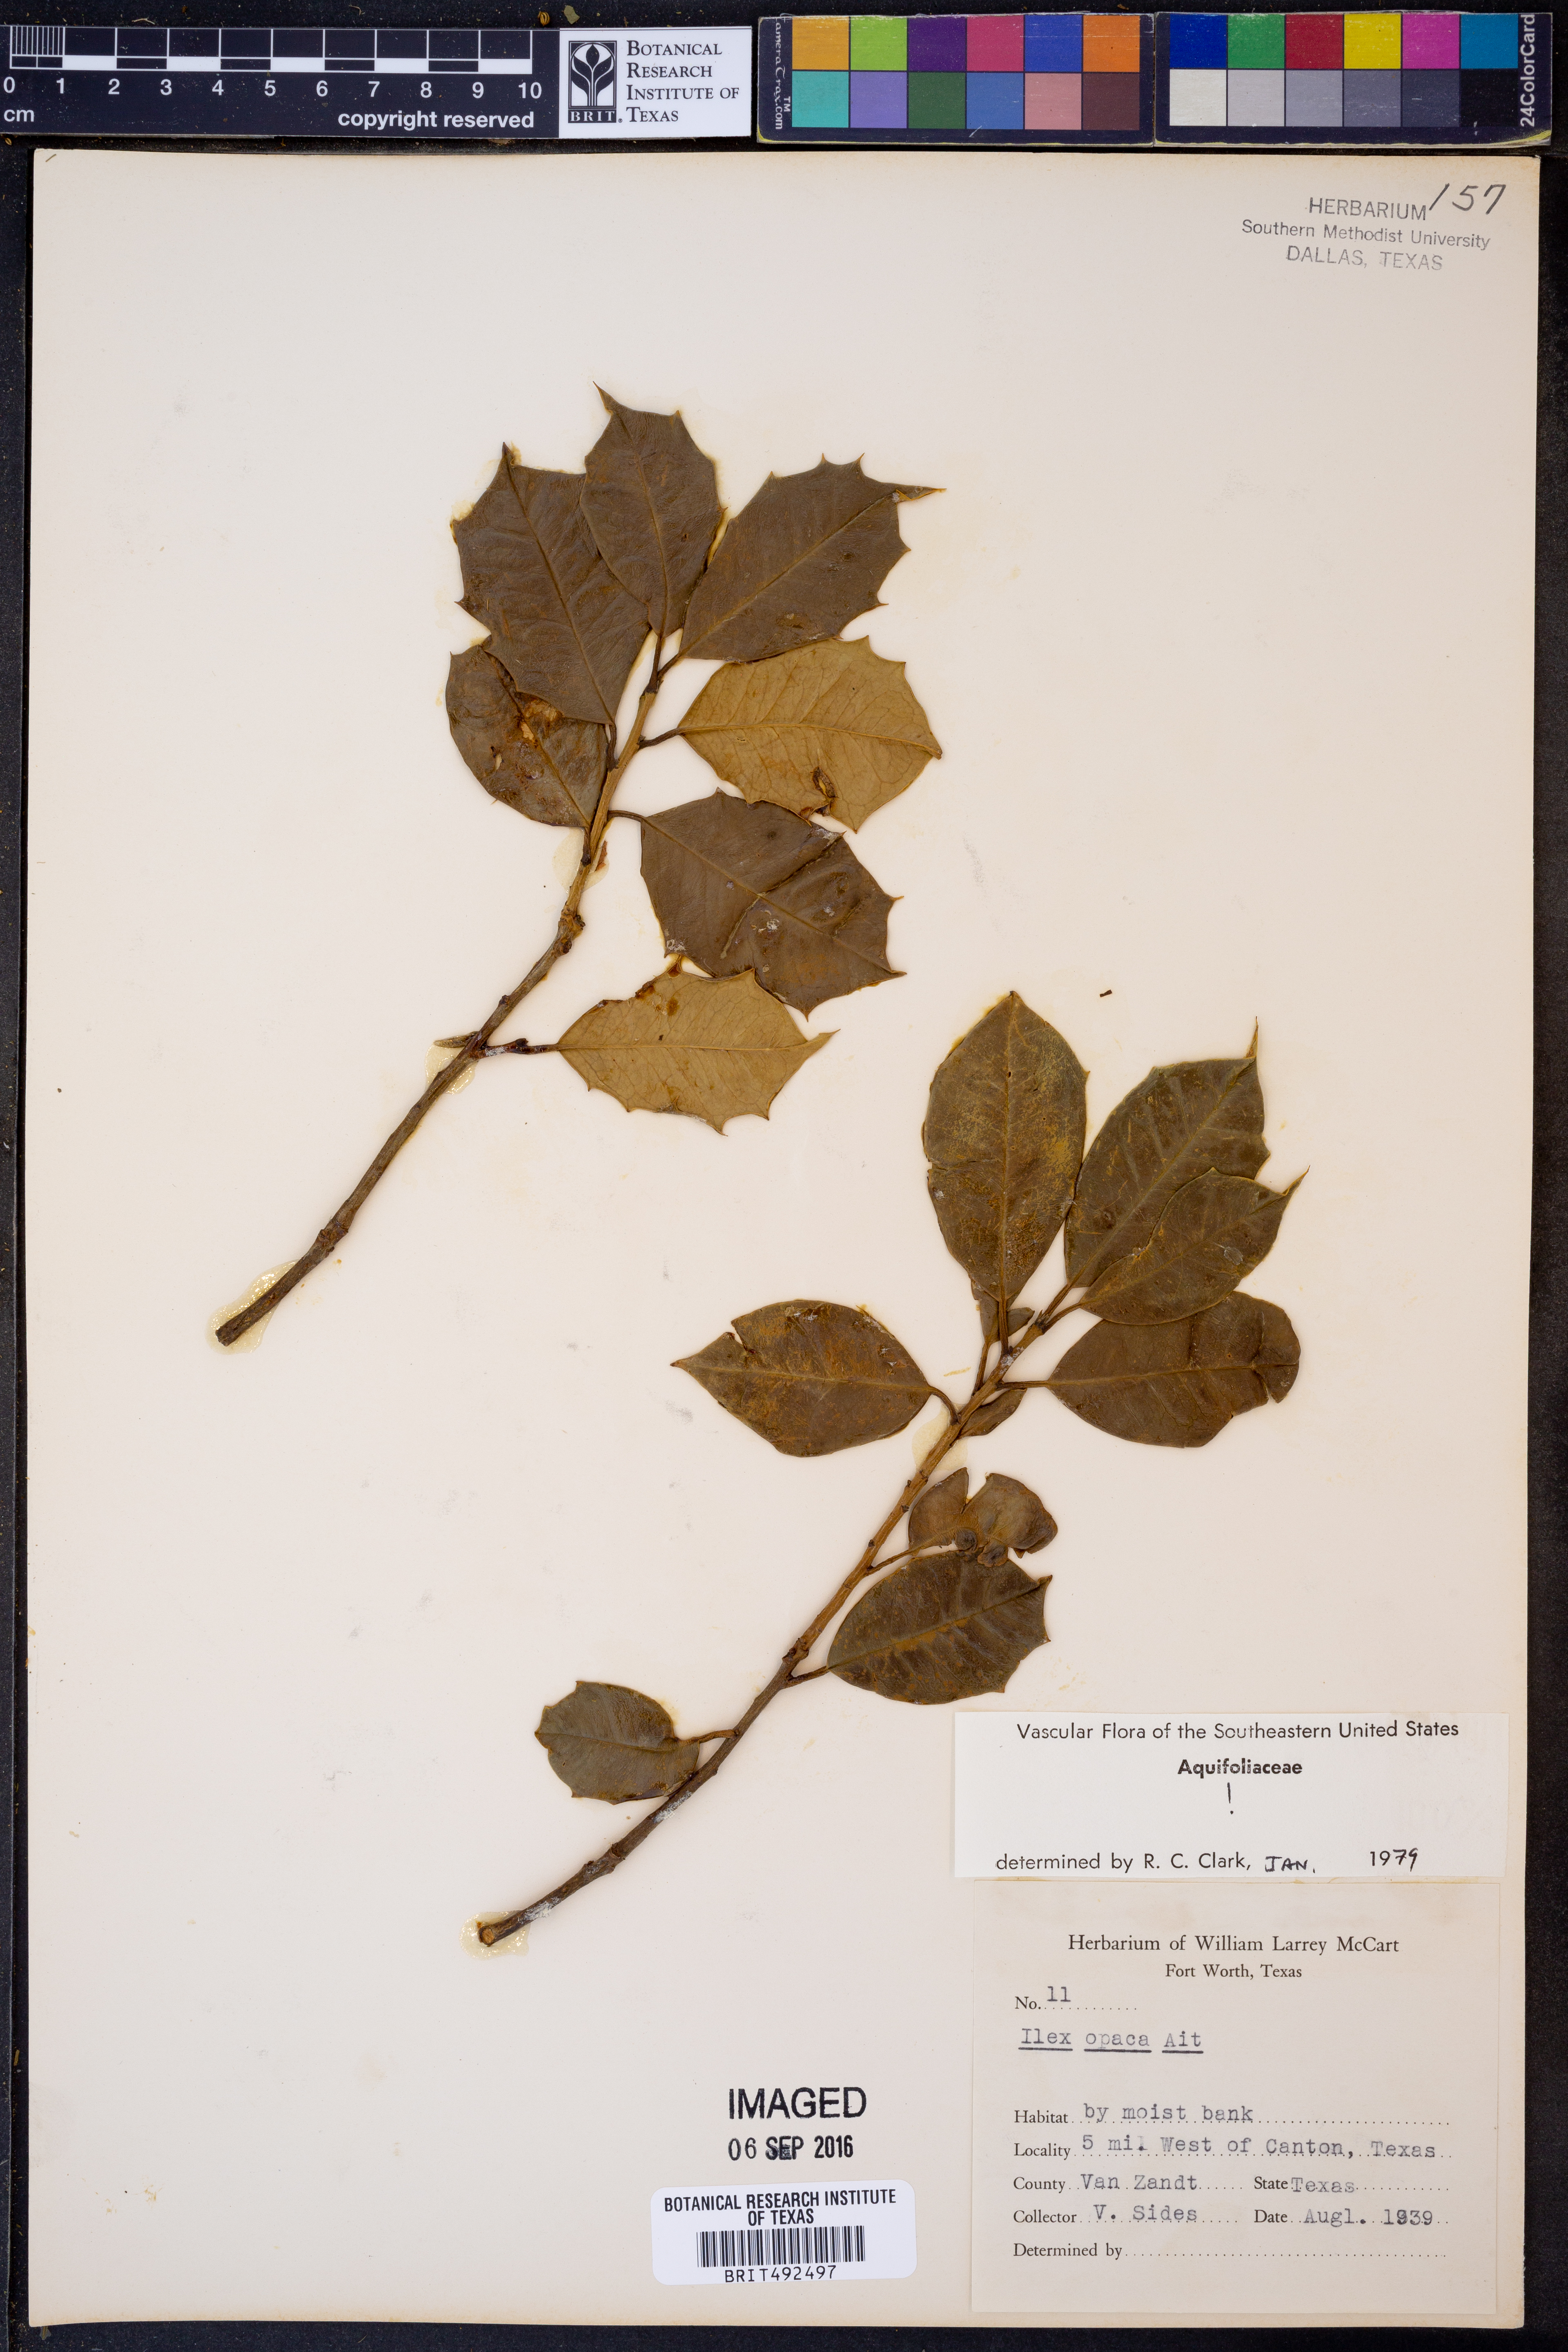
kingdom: Plantae
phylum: Tracheophyta
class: Magnoliopsida
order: Aquifoliales
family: Aquifoliaceae
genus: Ilex
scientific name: Ilex opaca
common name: American holly
